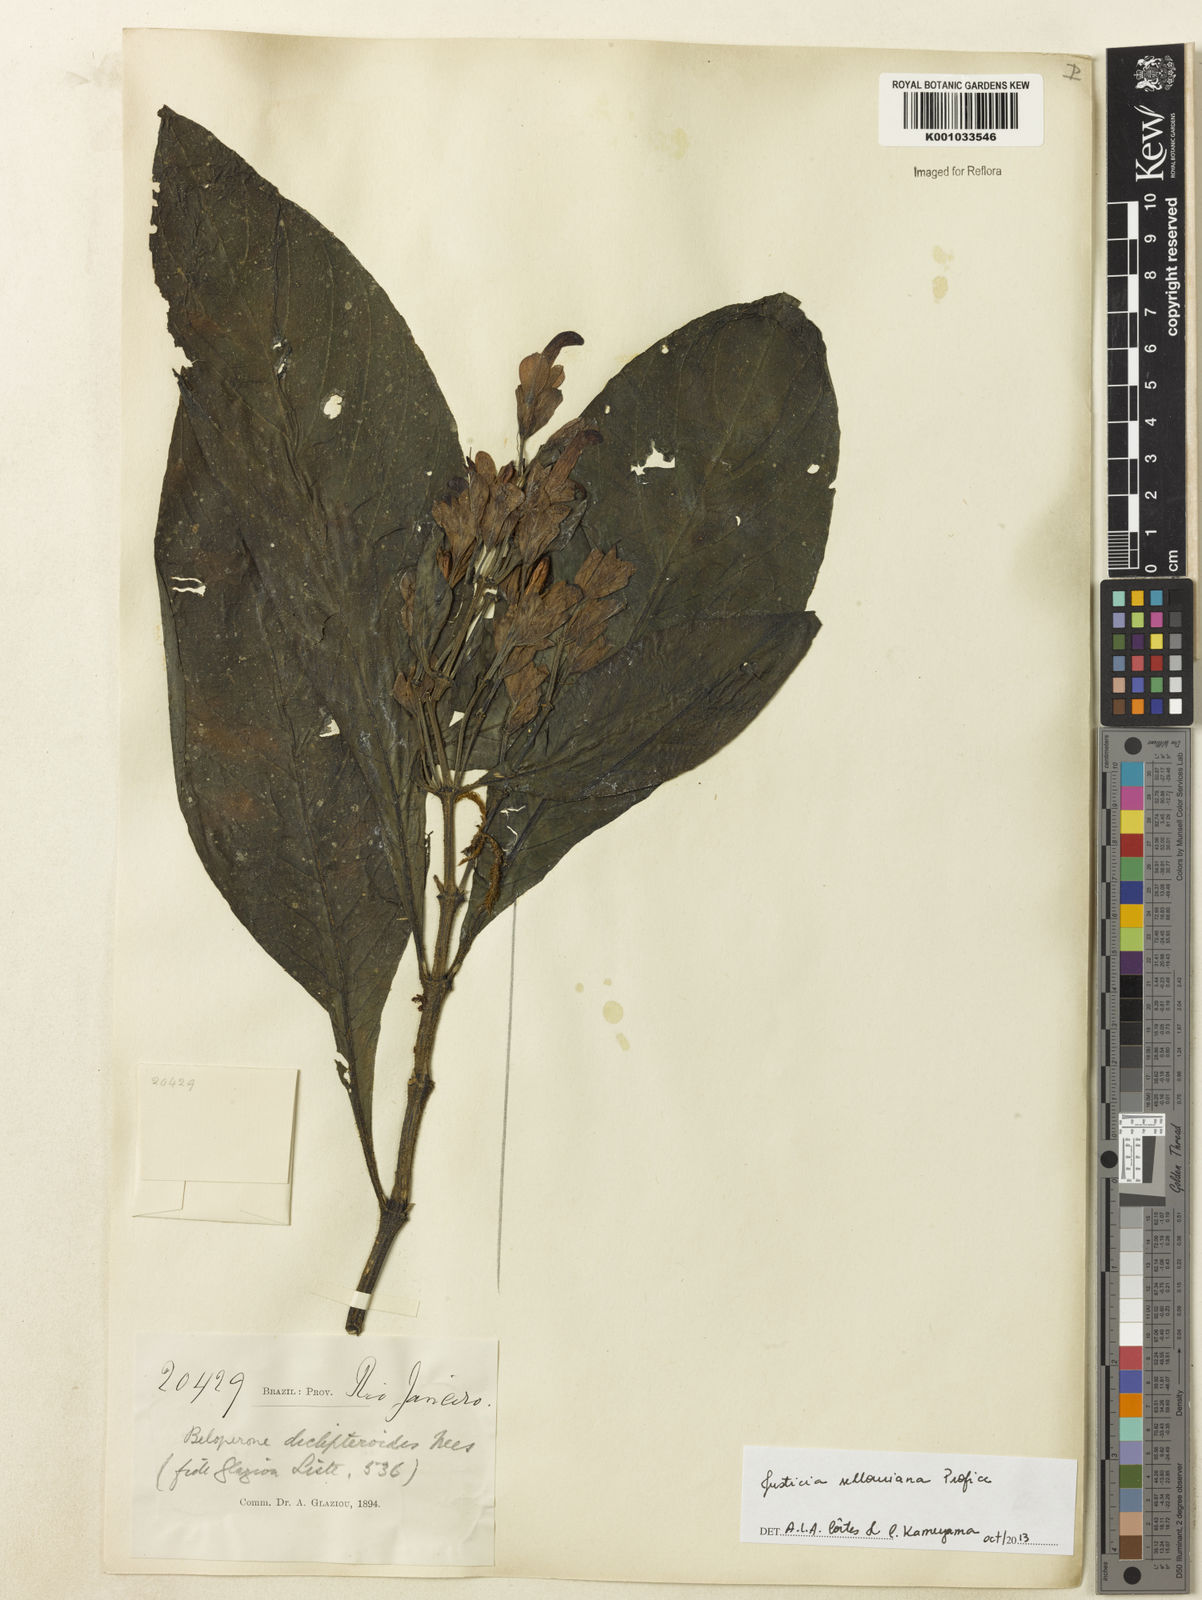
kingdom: Plantae
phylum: Tracheophyta
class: Magnoliopsida
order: Lamiales
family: Acanthaceae
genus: Justicia
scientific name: Justicia sellowiana
